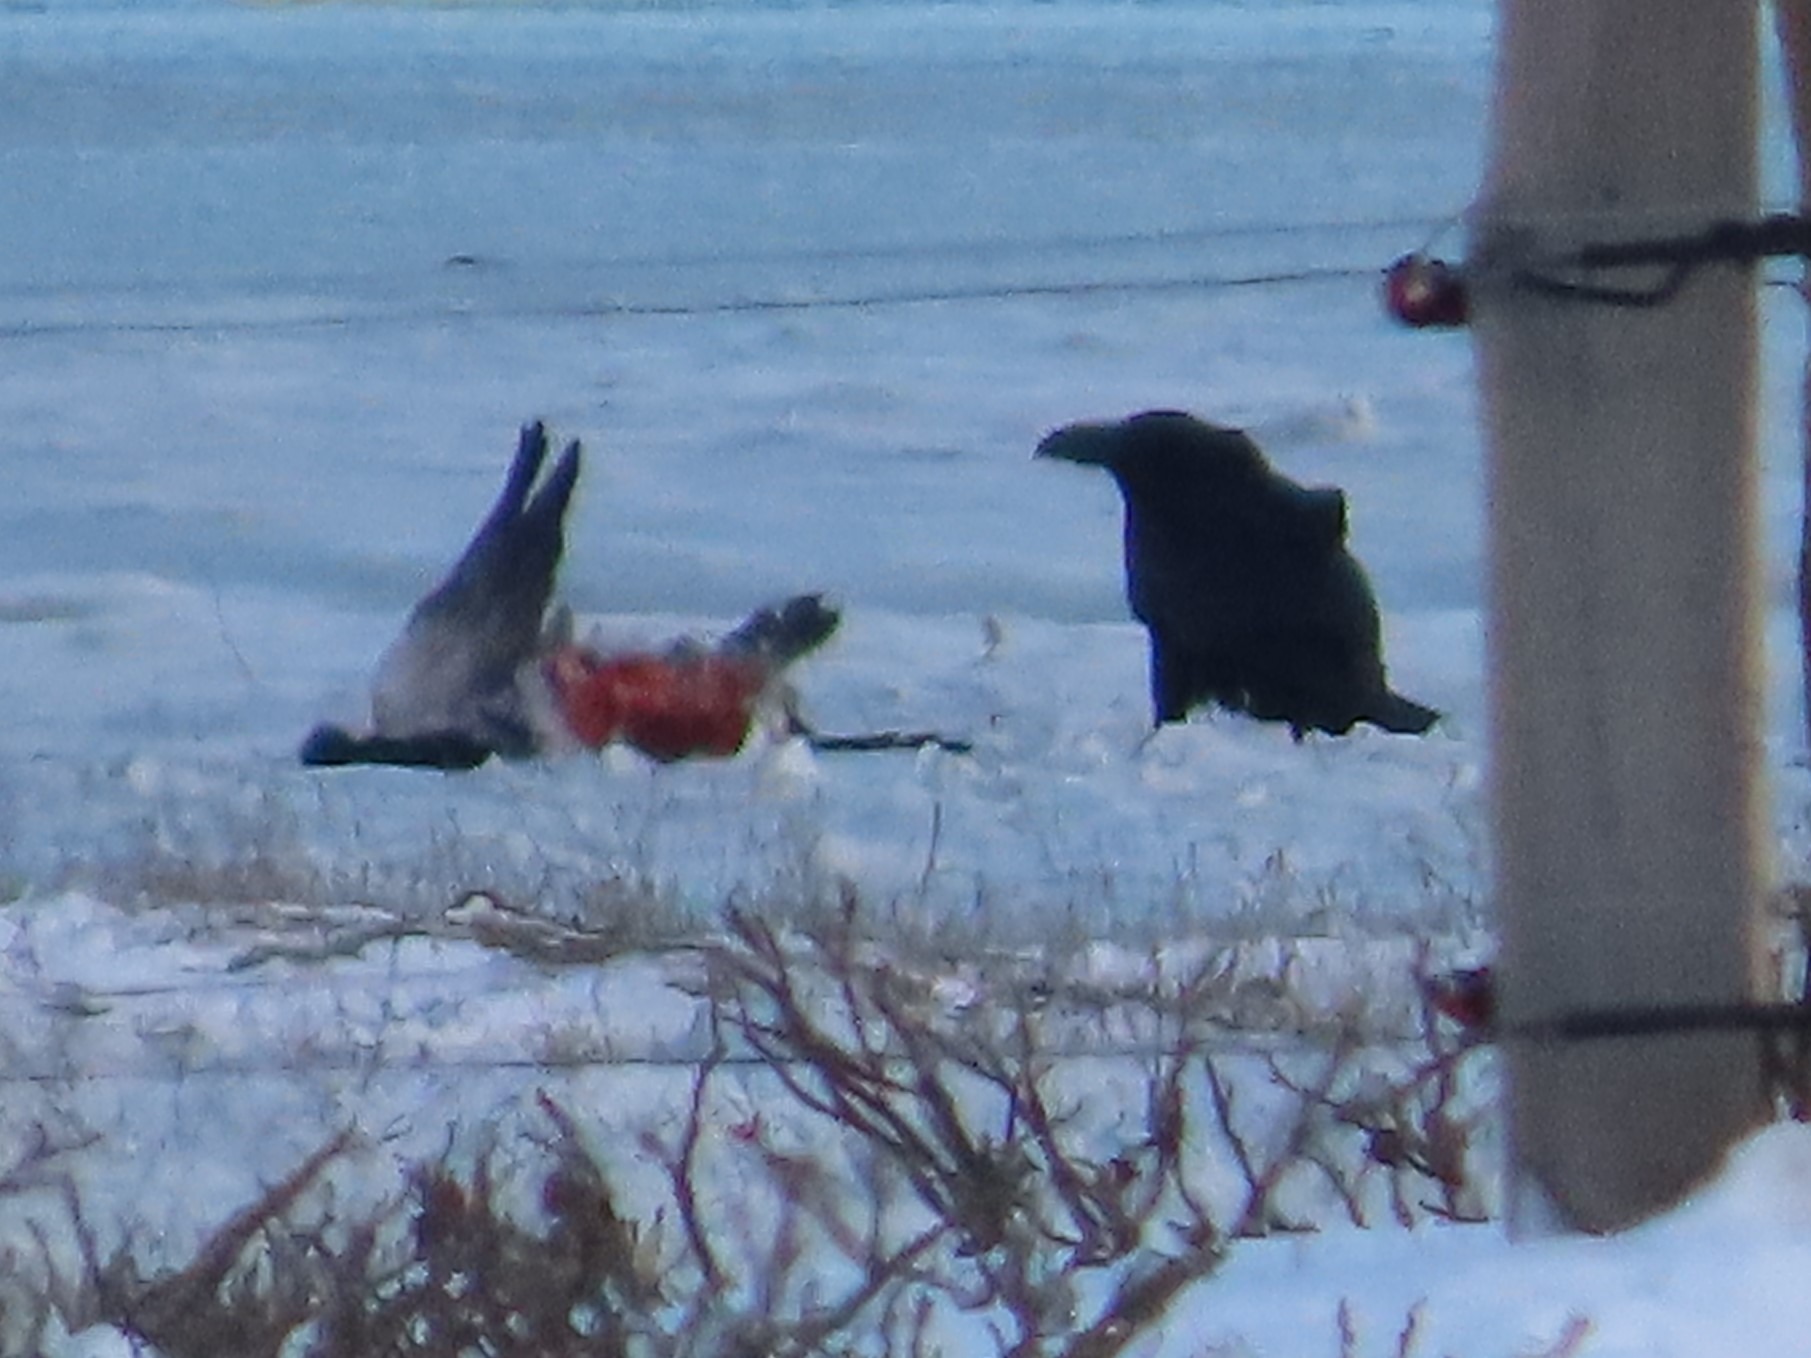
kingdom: Animalia
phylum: Chordata
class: Aves
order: Passeriformes
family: Corvidae
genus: Corvus
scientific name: Corvus corax
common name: Ravn
